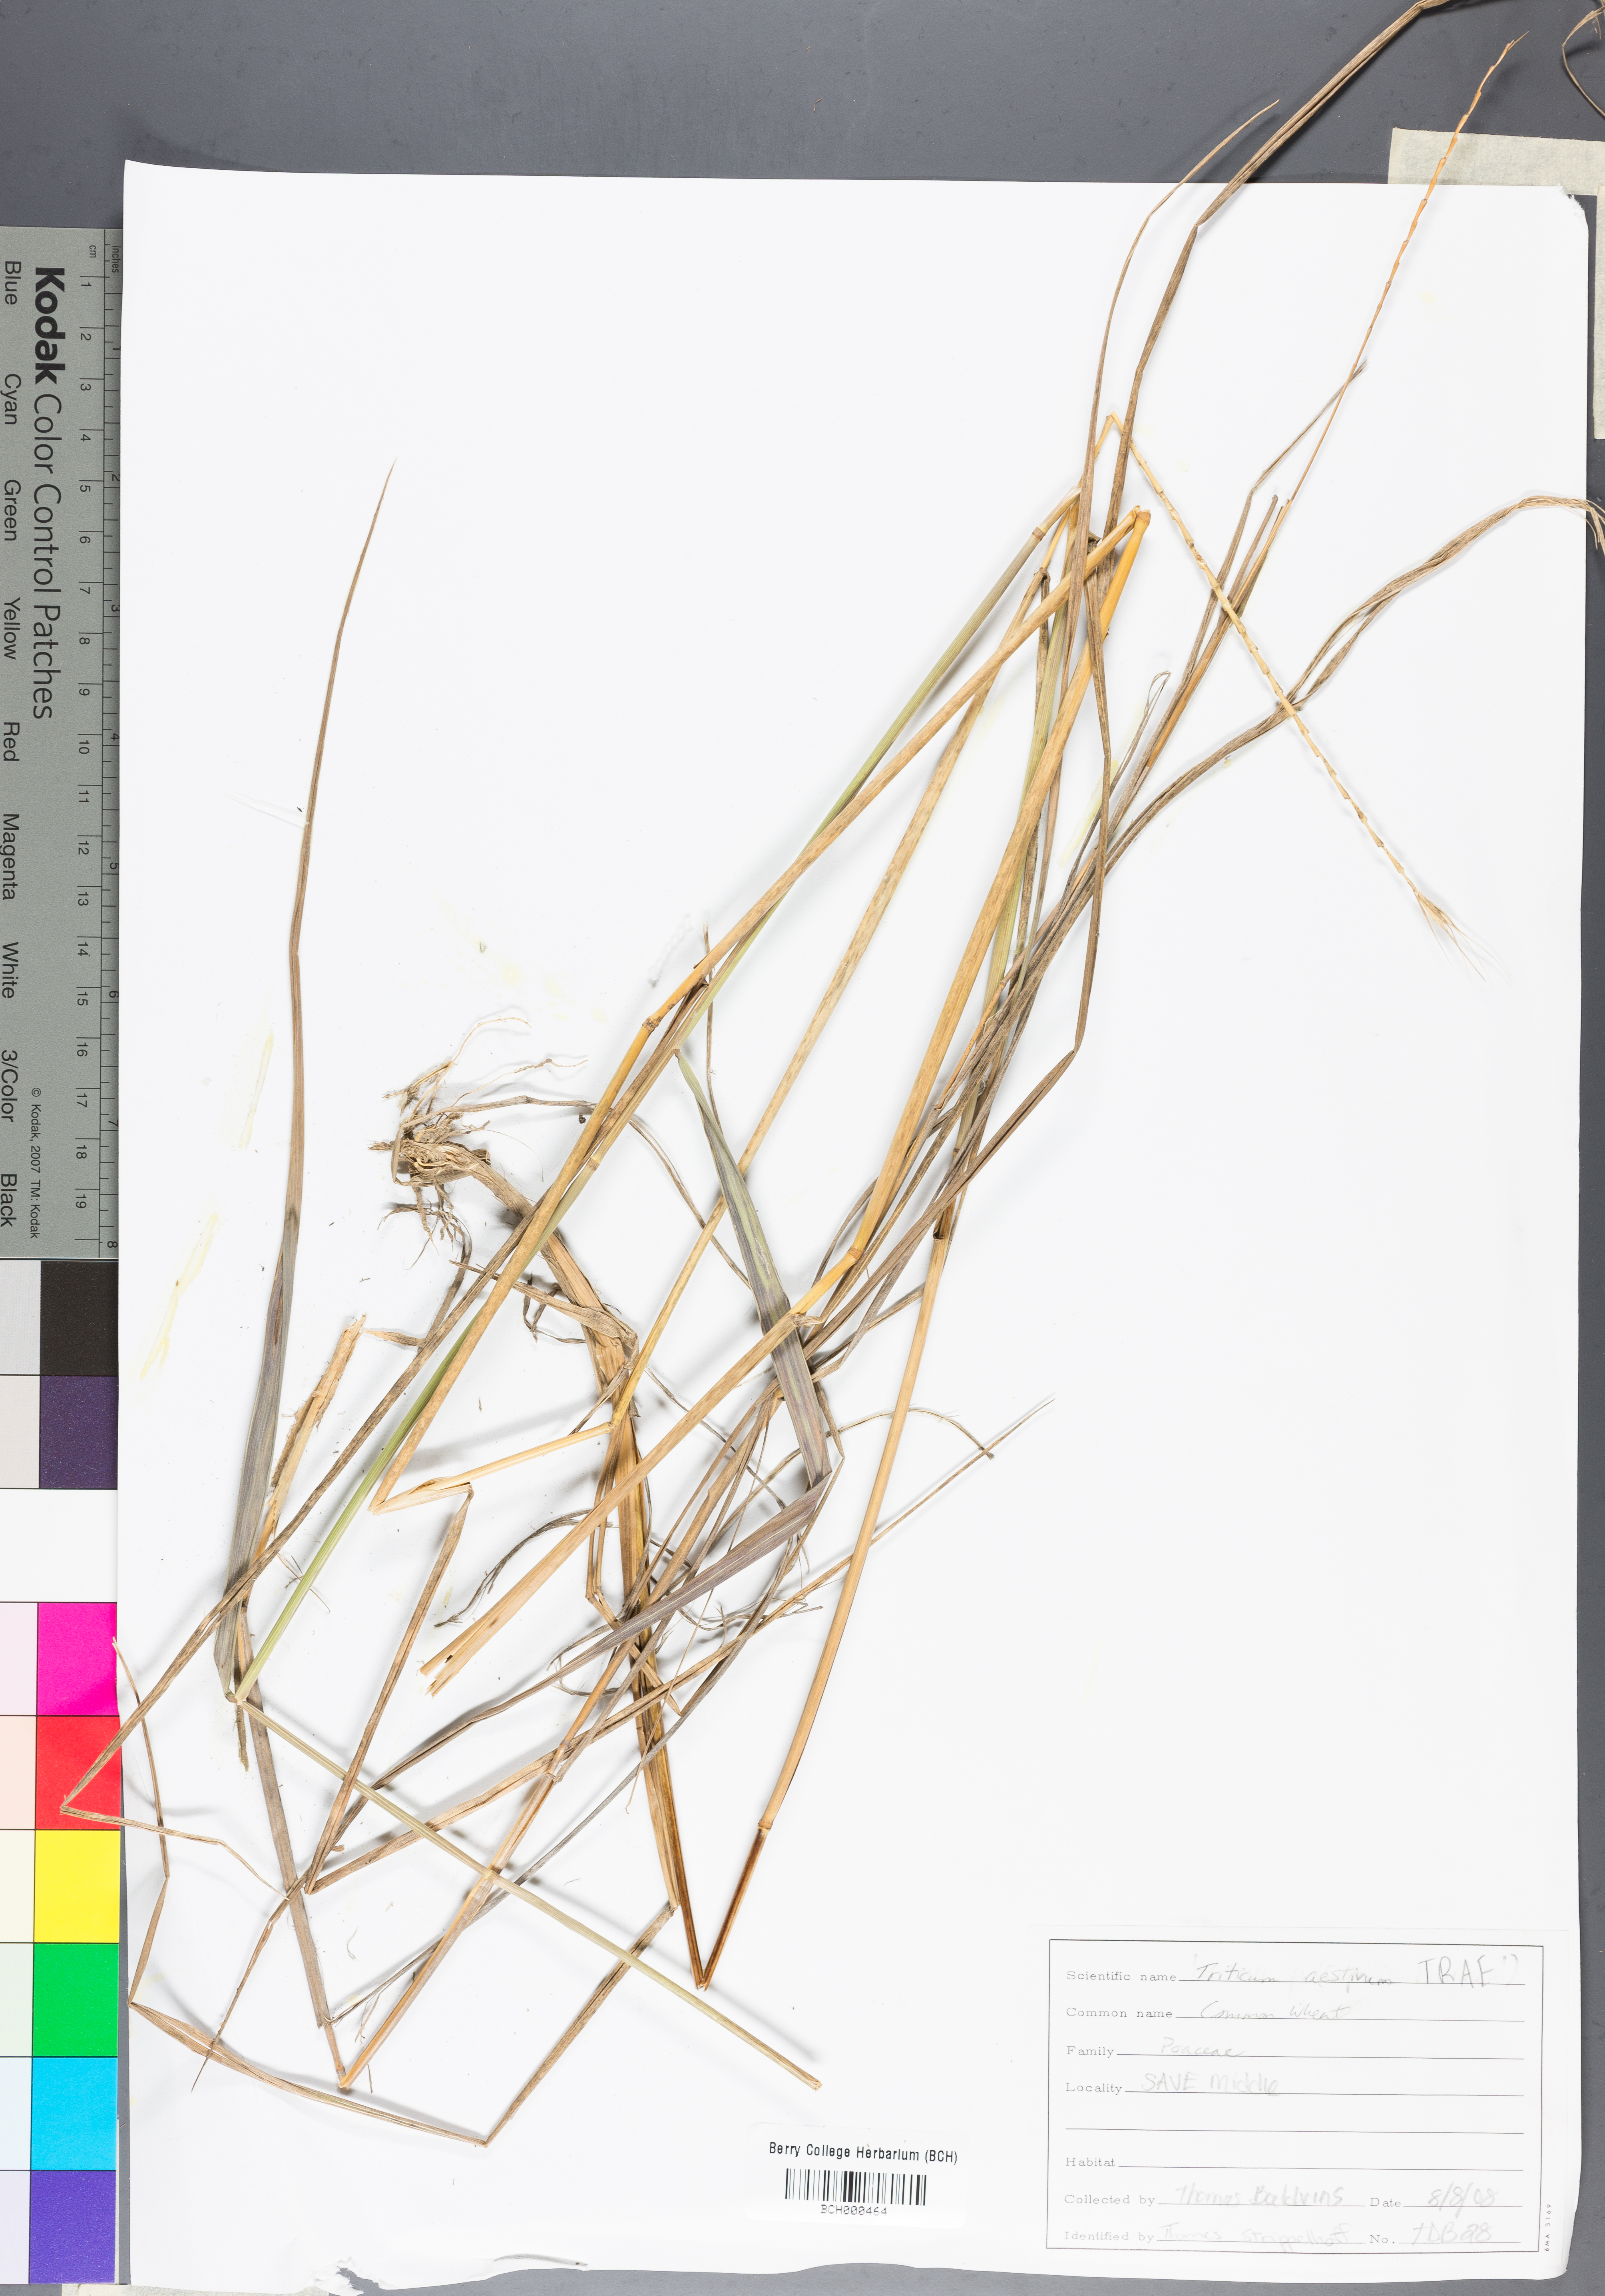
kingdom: Plantae
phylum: Tracheophyta
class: Liliopsida
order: Poales
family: Poaceae
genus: Triticum
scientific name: Triticum aestivum
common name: Common wheat
